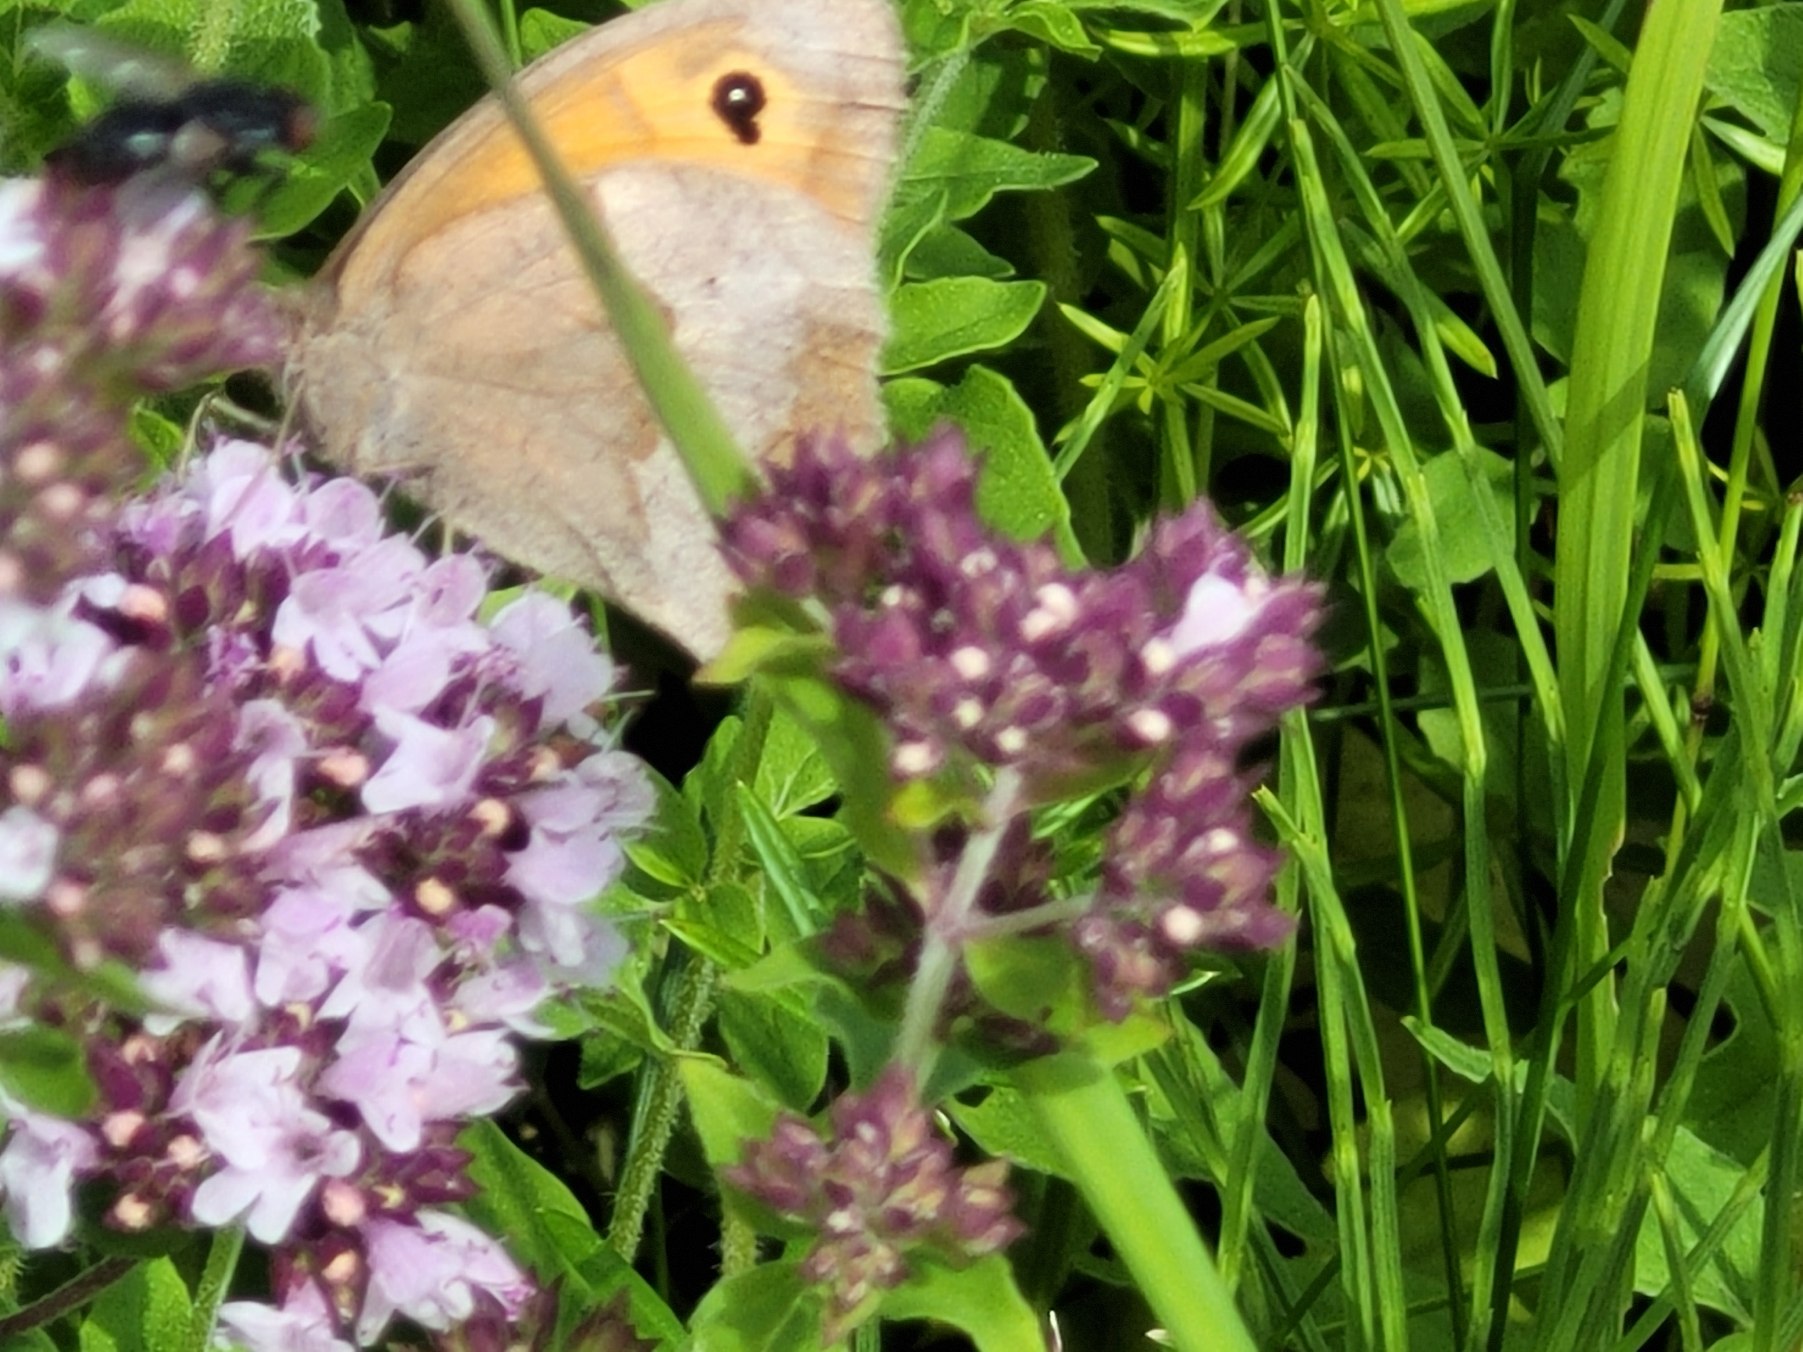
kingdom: Animalia
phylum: Arthropoda
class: Insecta
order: Lepidoptera
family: Nymphalidae
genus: Maniola
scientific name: Maniola jurtina
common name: Græsrandøje
